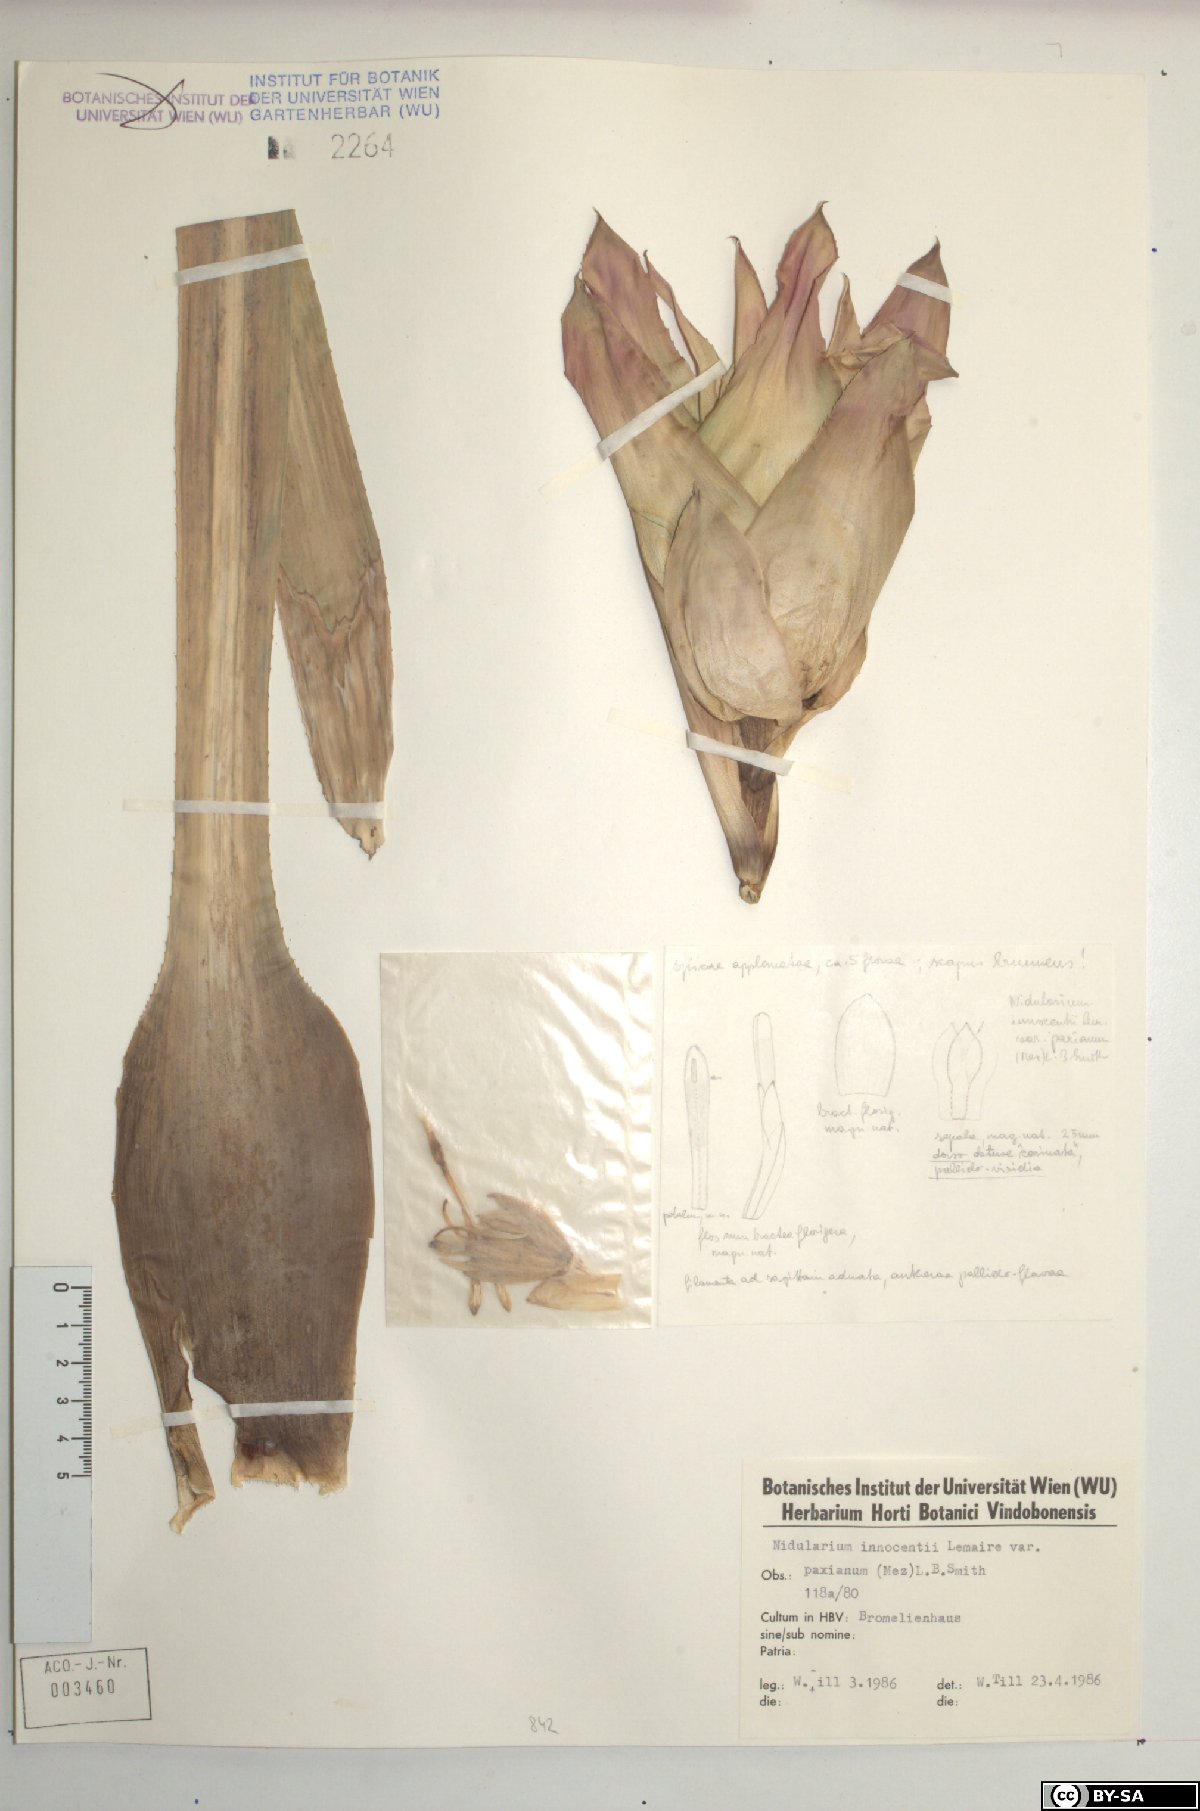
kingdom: Plantae
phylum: Tracheophyta
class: Liliopsida
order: Poales
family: Bromeliaceae
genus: Nidularium
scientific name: Nidularium innocentii
